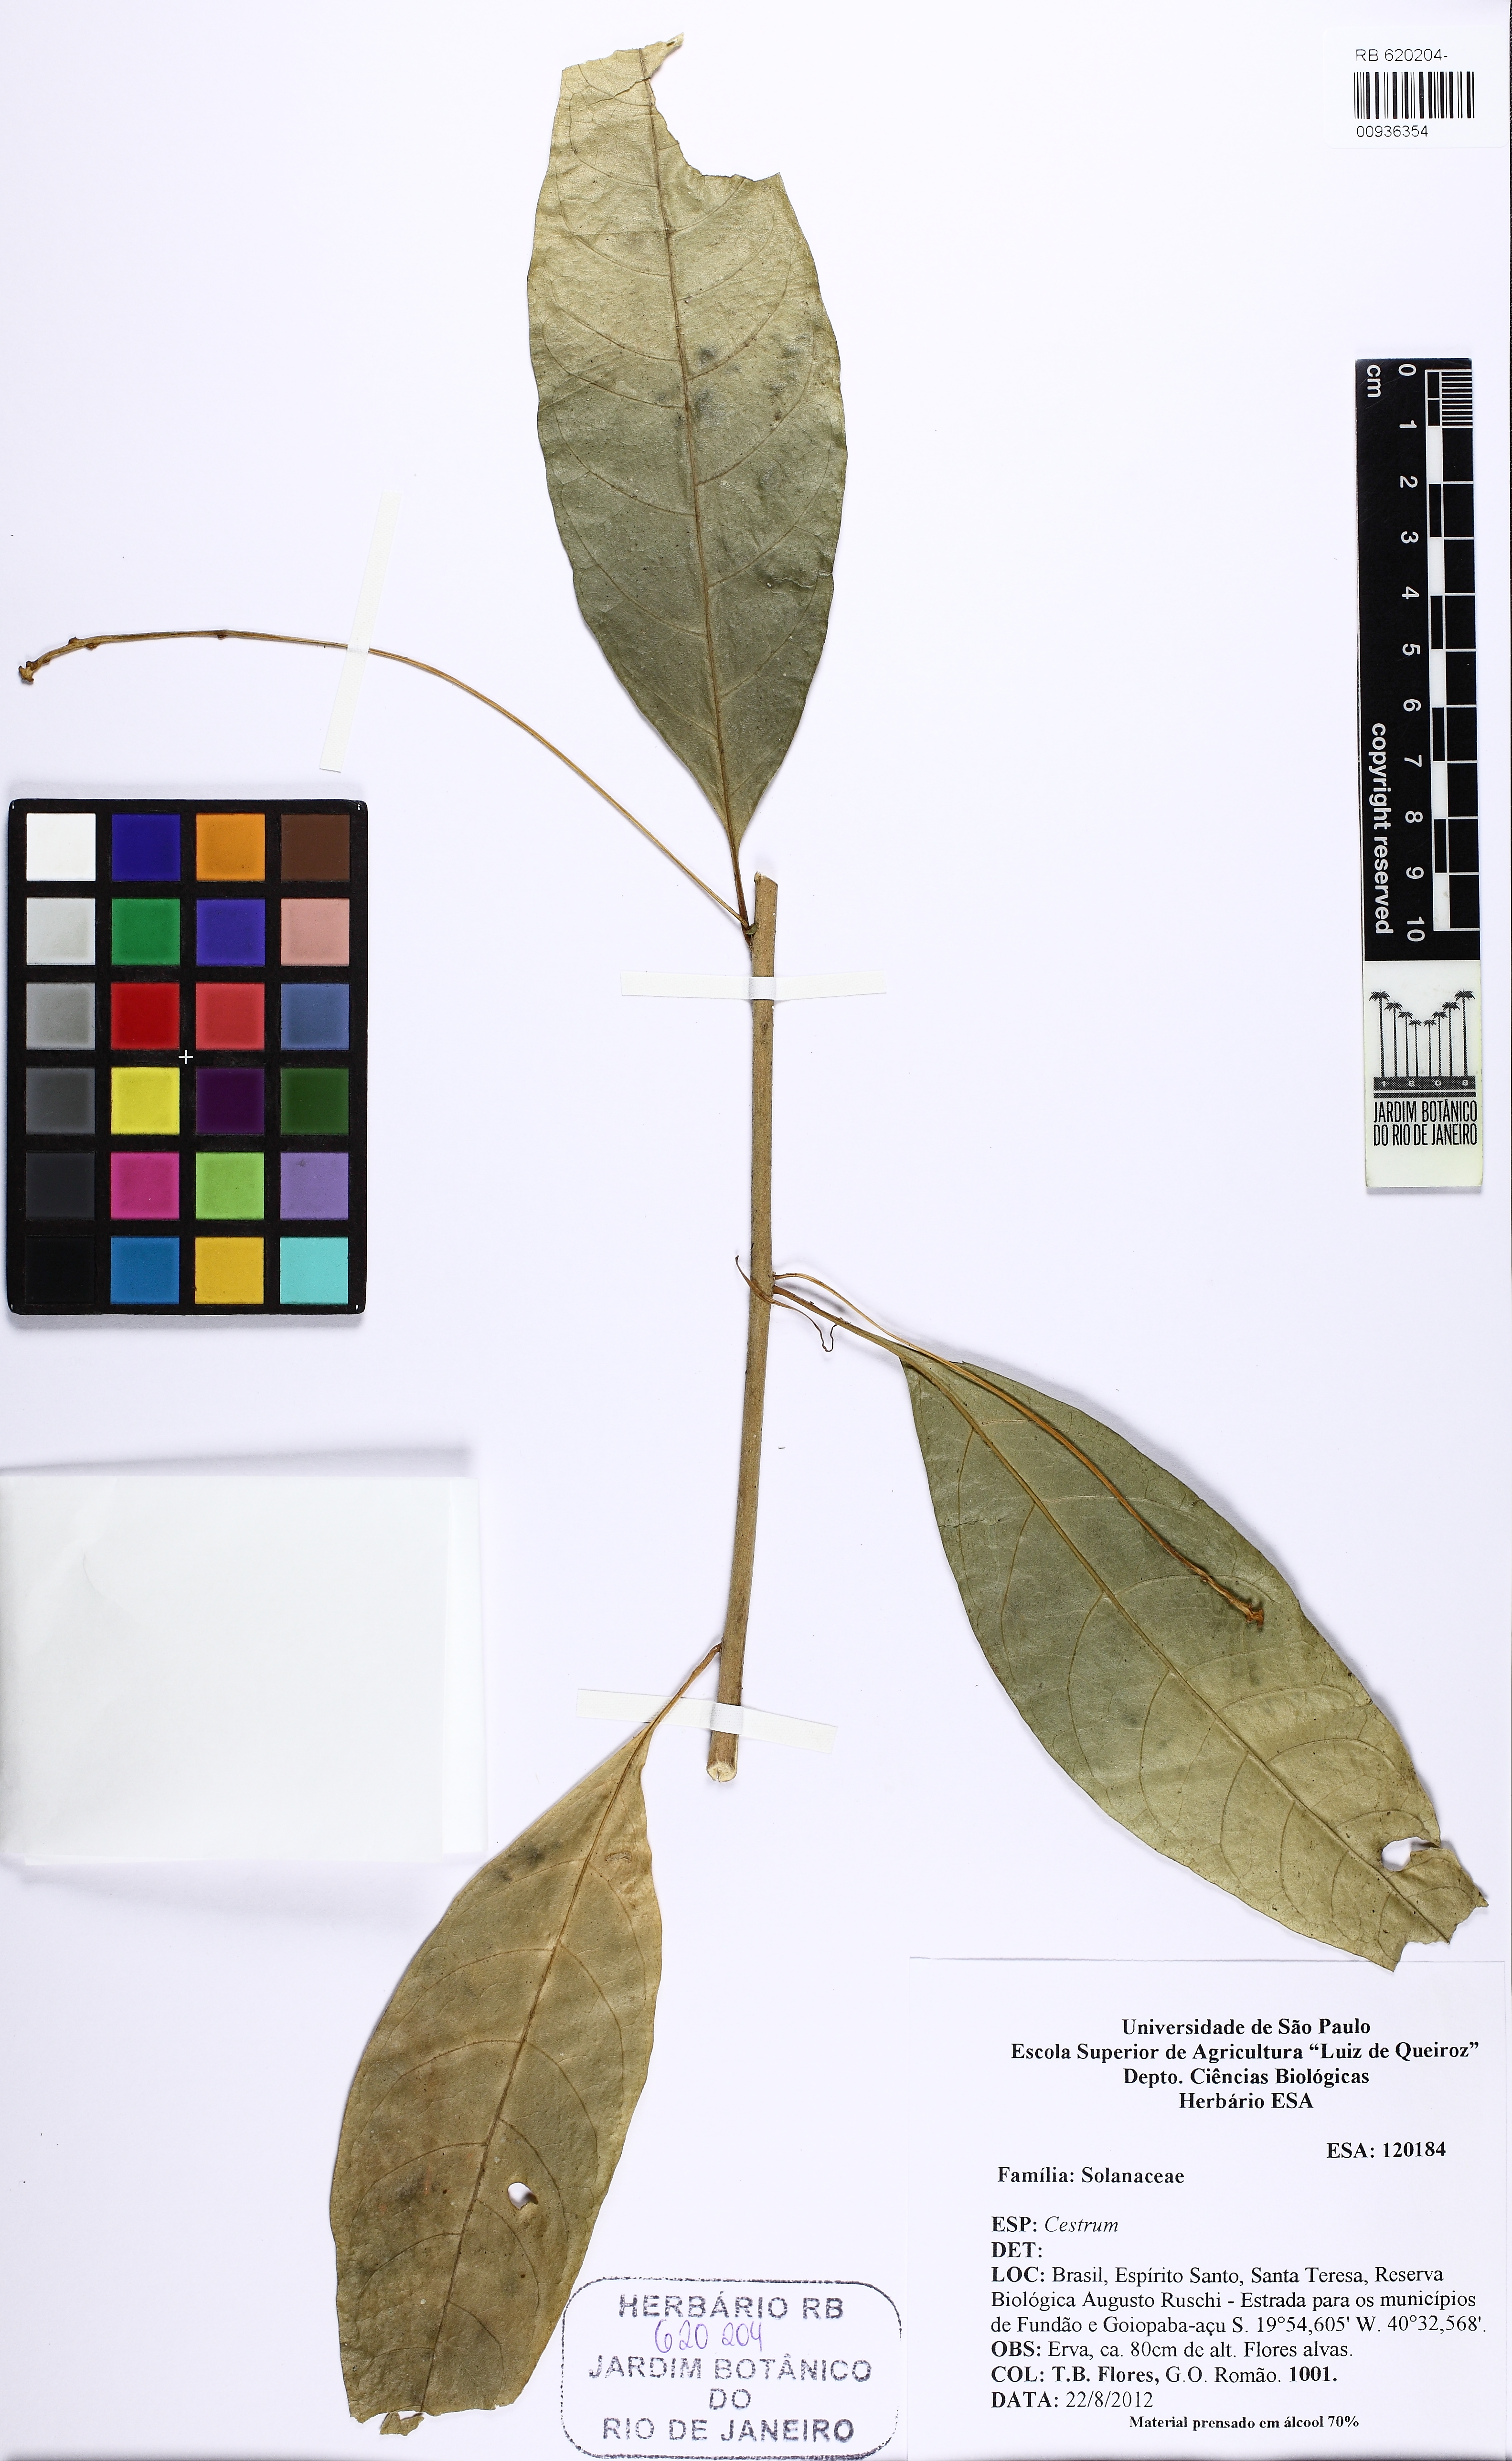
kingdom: Plantae
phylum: Tracheophyta
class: Magnoliopsida
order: Solanales
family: Solanaceae
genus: Cestrum
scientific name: Cestrum
